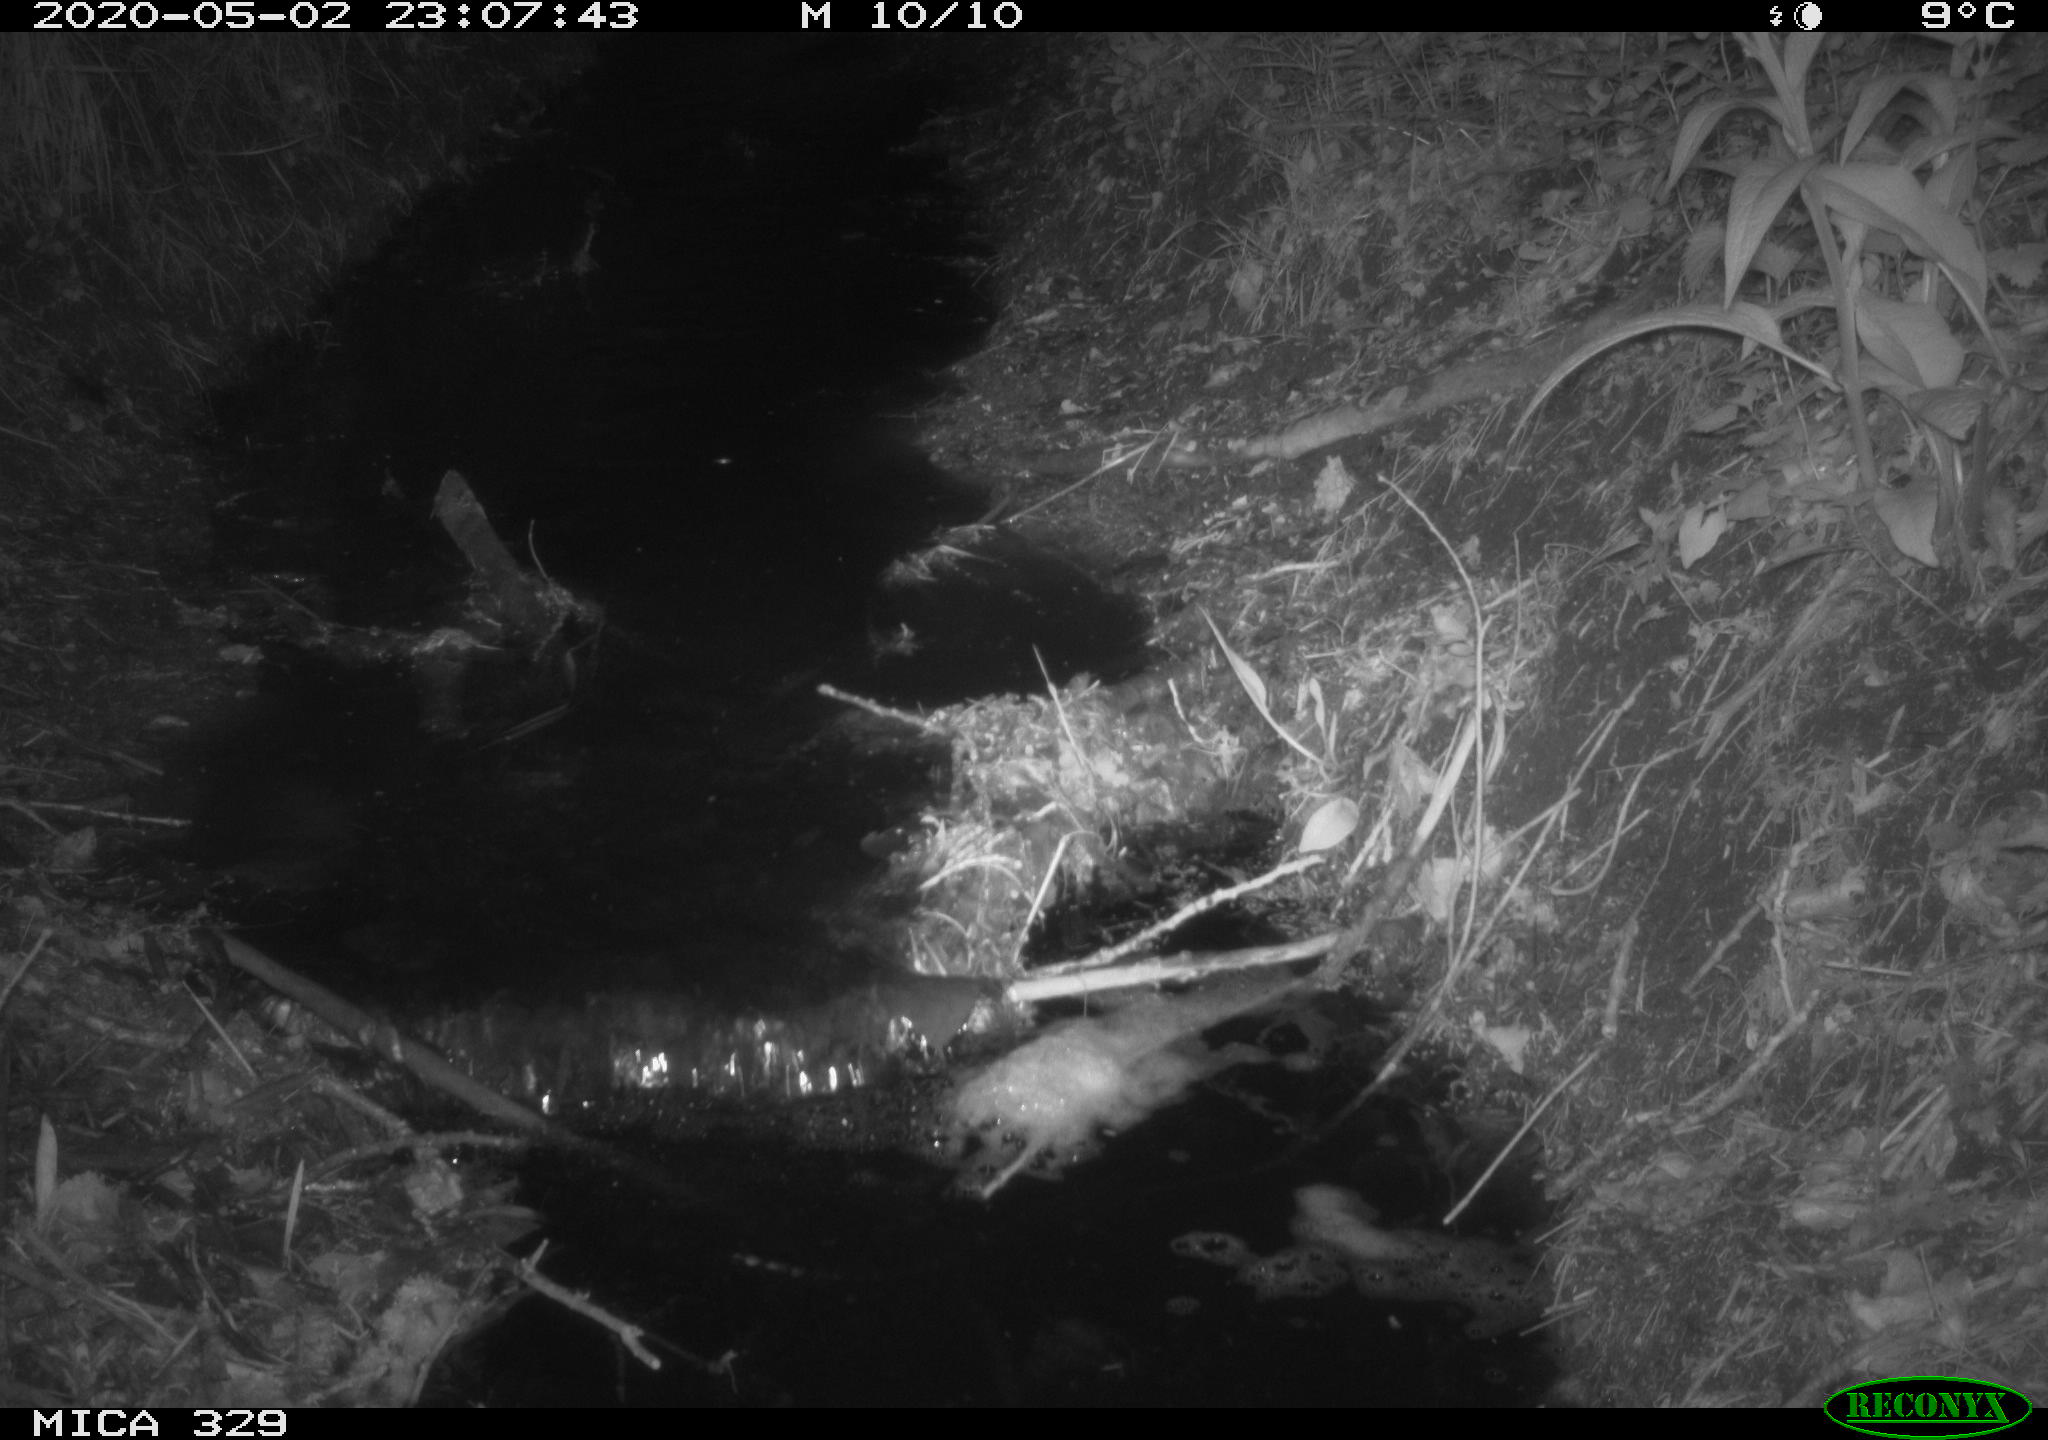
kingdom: Animalia
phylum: Chordata
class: Mammalia
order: Rodentia
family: Cricetidae
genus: Ondatra
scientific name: Ondatra zibethicus
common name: Muskrat
